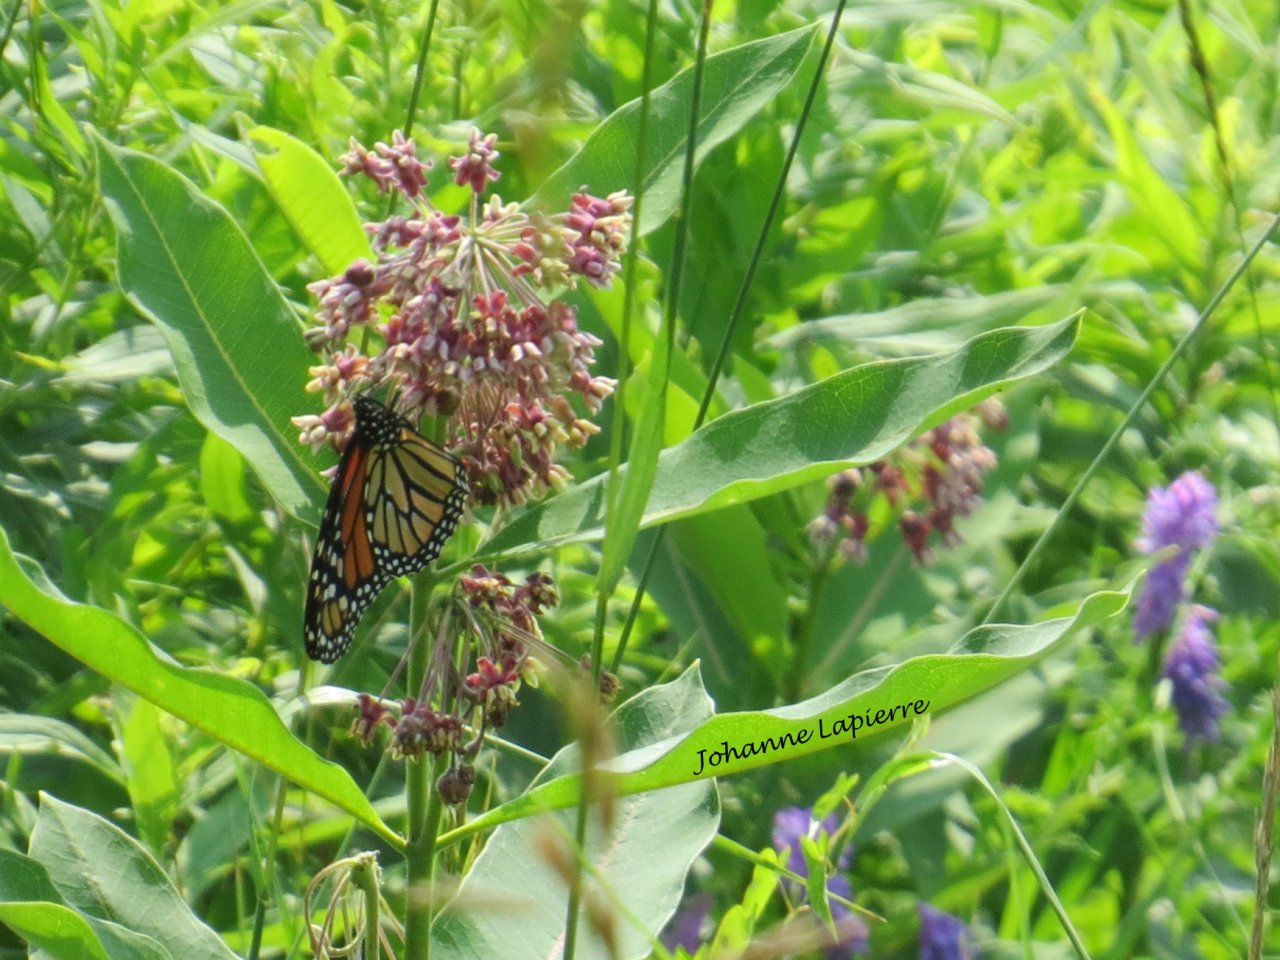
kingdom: Animalia
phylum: Arthropoda
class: Insecta
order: Lepidoptera
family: Nymphalidae
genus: Danaus
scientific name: Danaus plexippus
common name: Monarch
